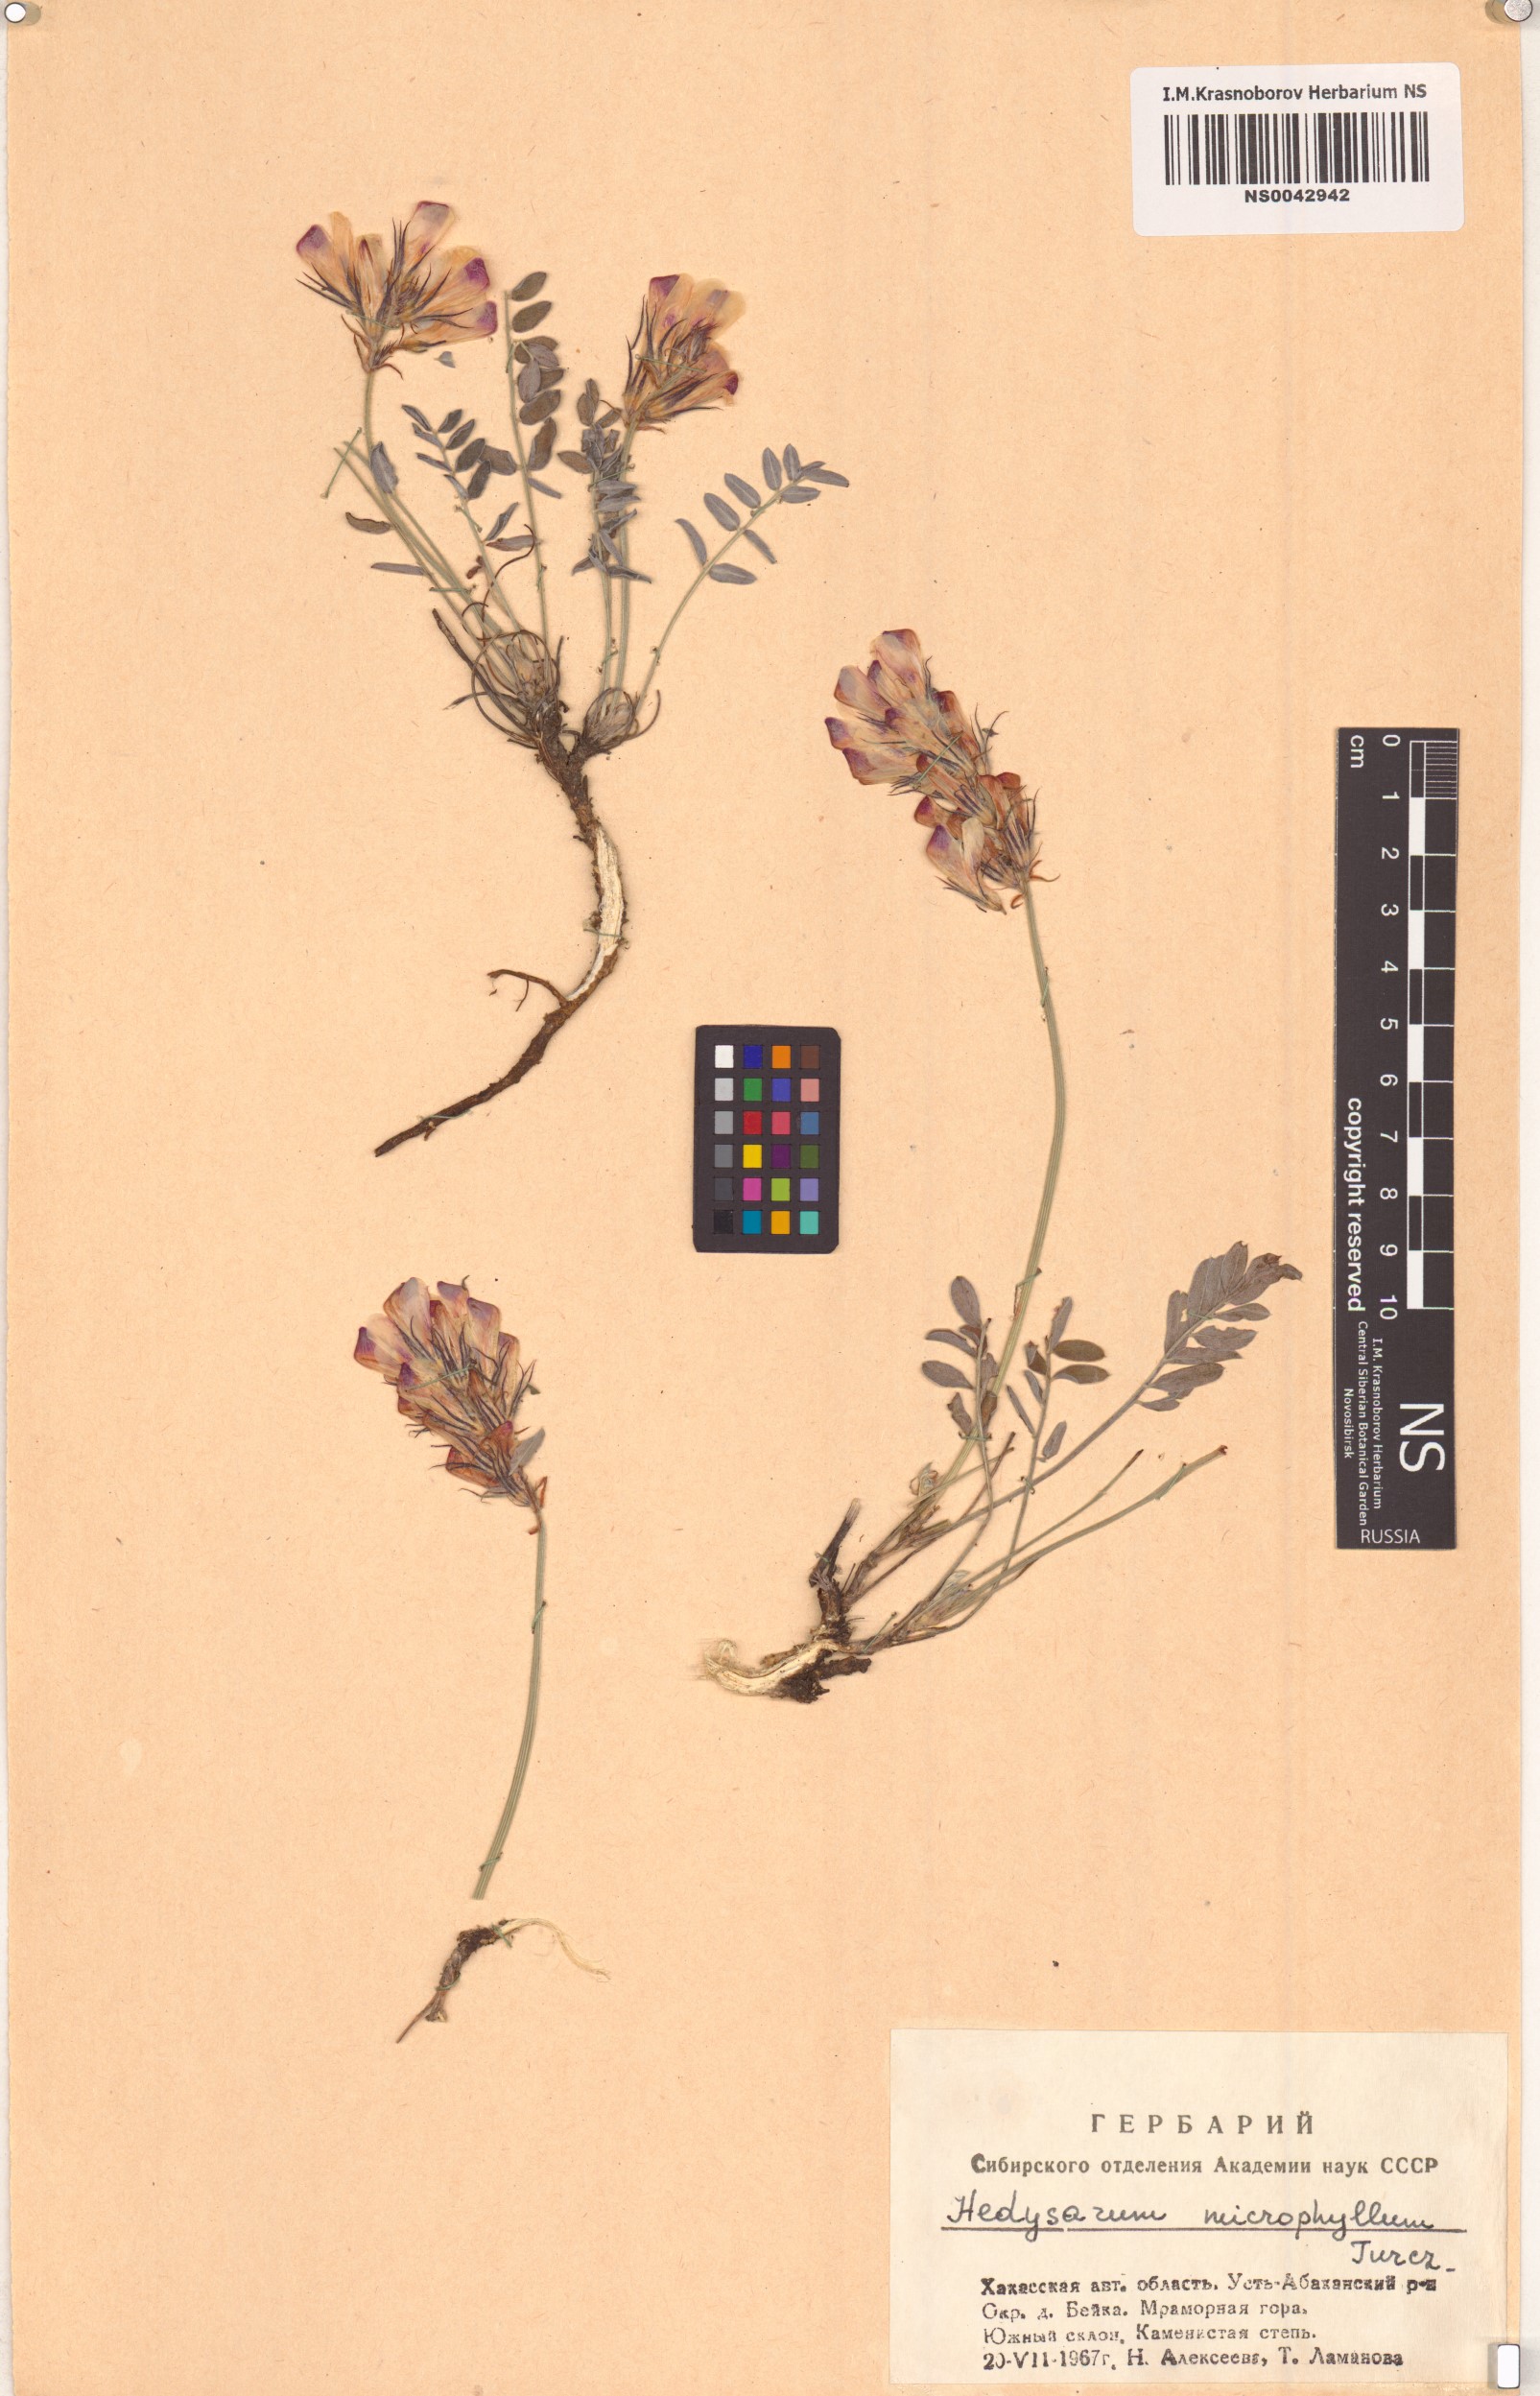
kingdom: Plantae
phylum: Tracheophyta
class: Magnoliopsida
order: Fabales
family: Fabaceae
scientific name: Fabaceae
